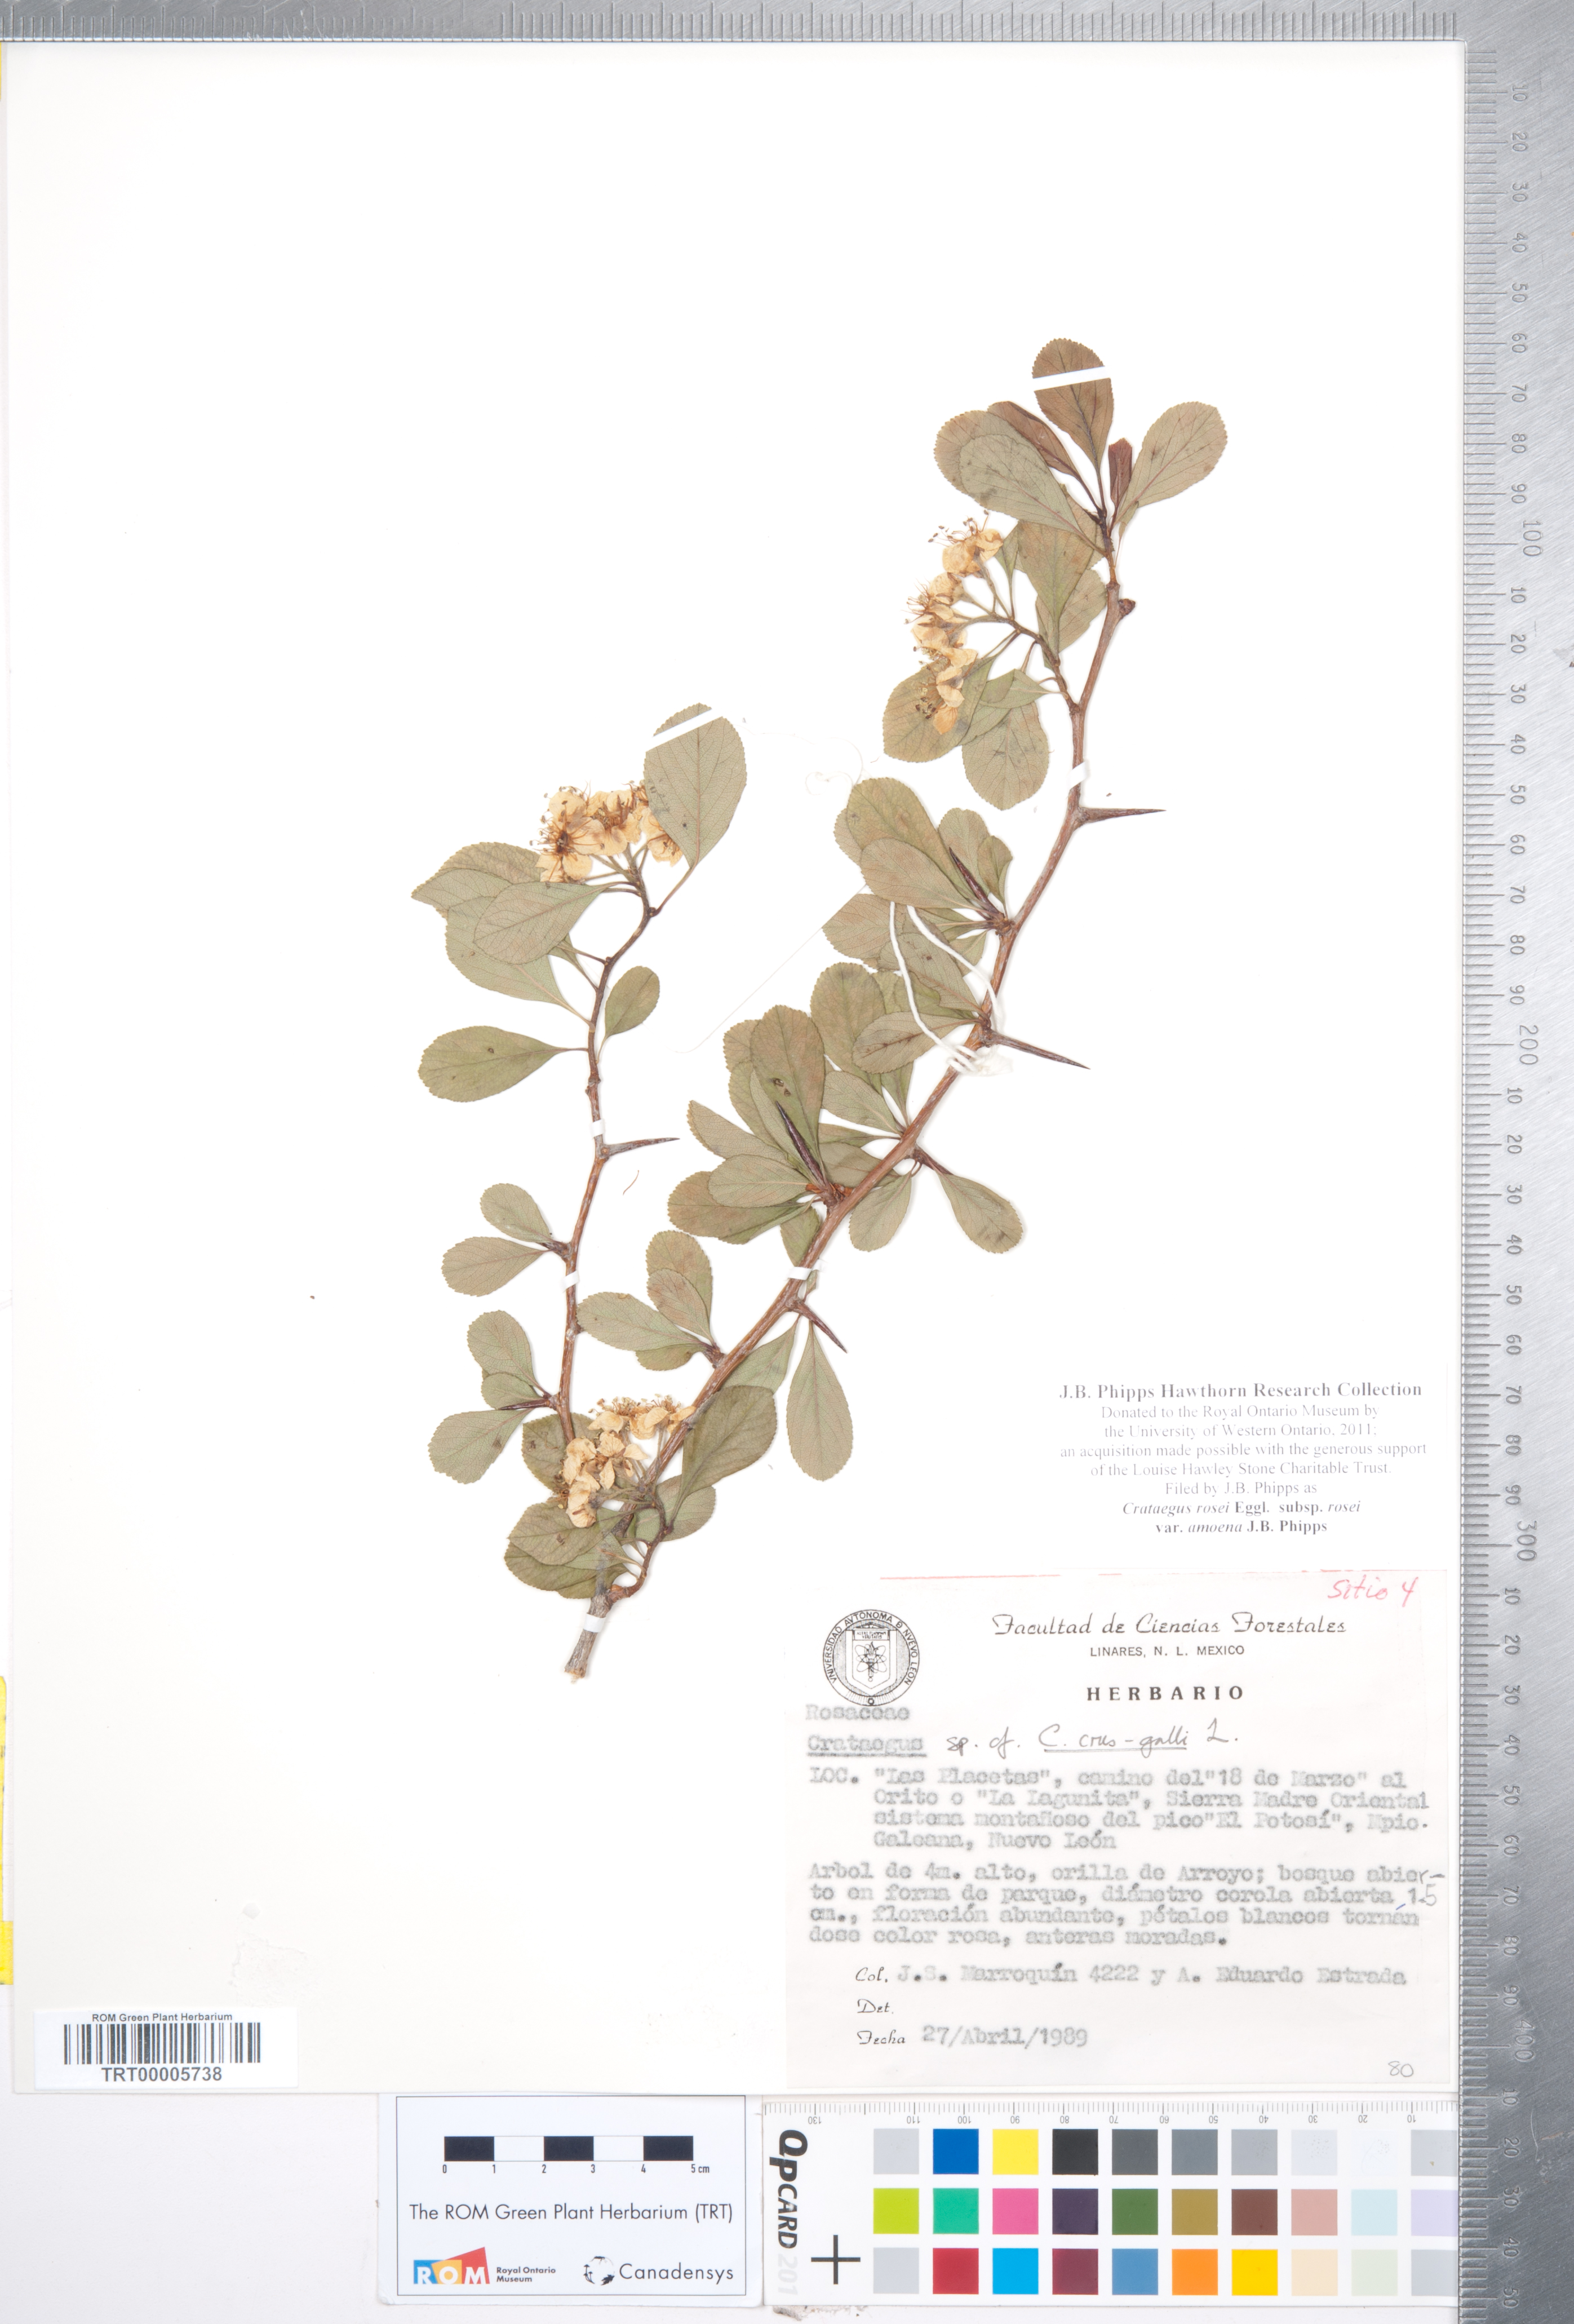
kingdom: Plantae
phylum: Tracheophyta
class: Magnoliopsida
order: Rosales
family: Rosaceae
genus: Crataegus
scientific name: Crataegus rosei
